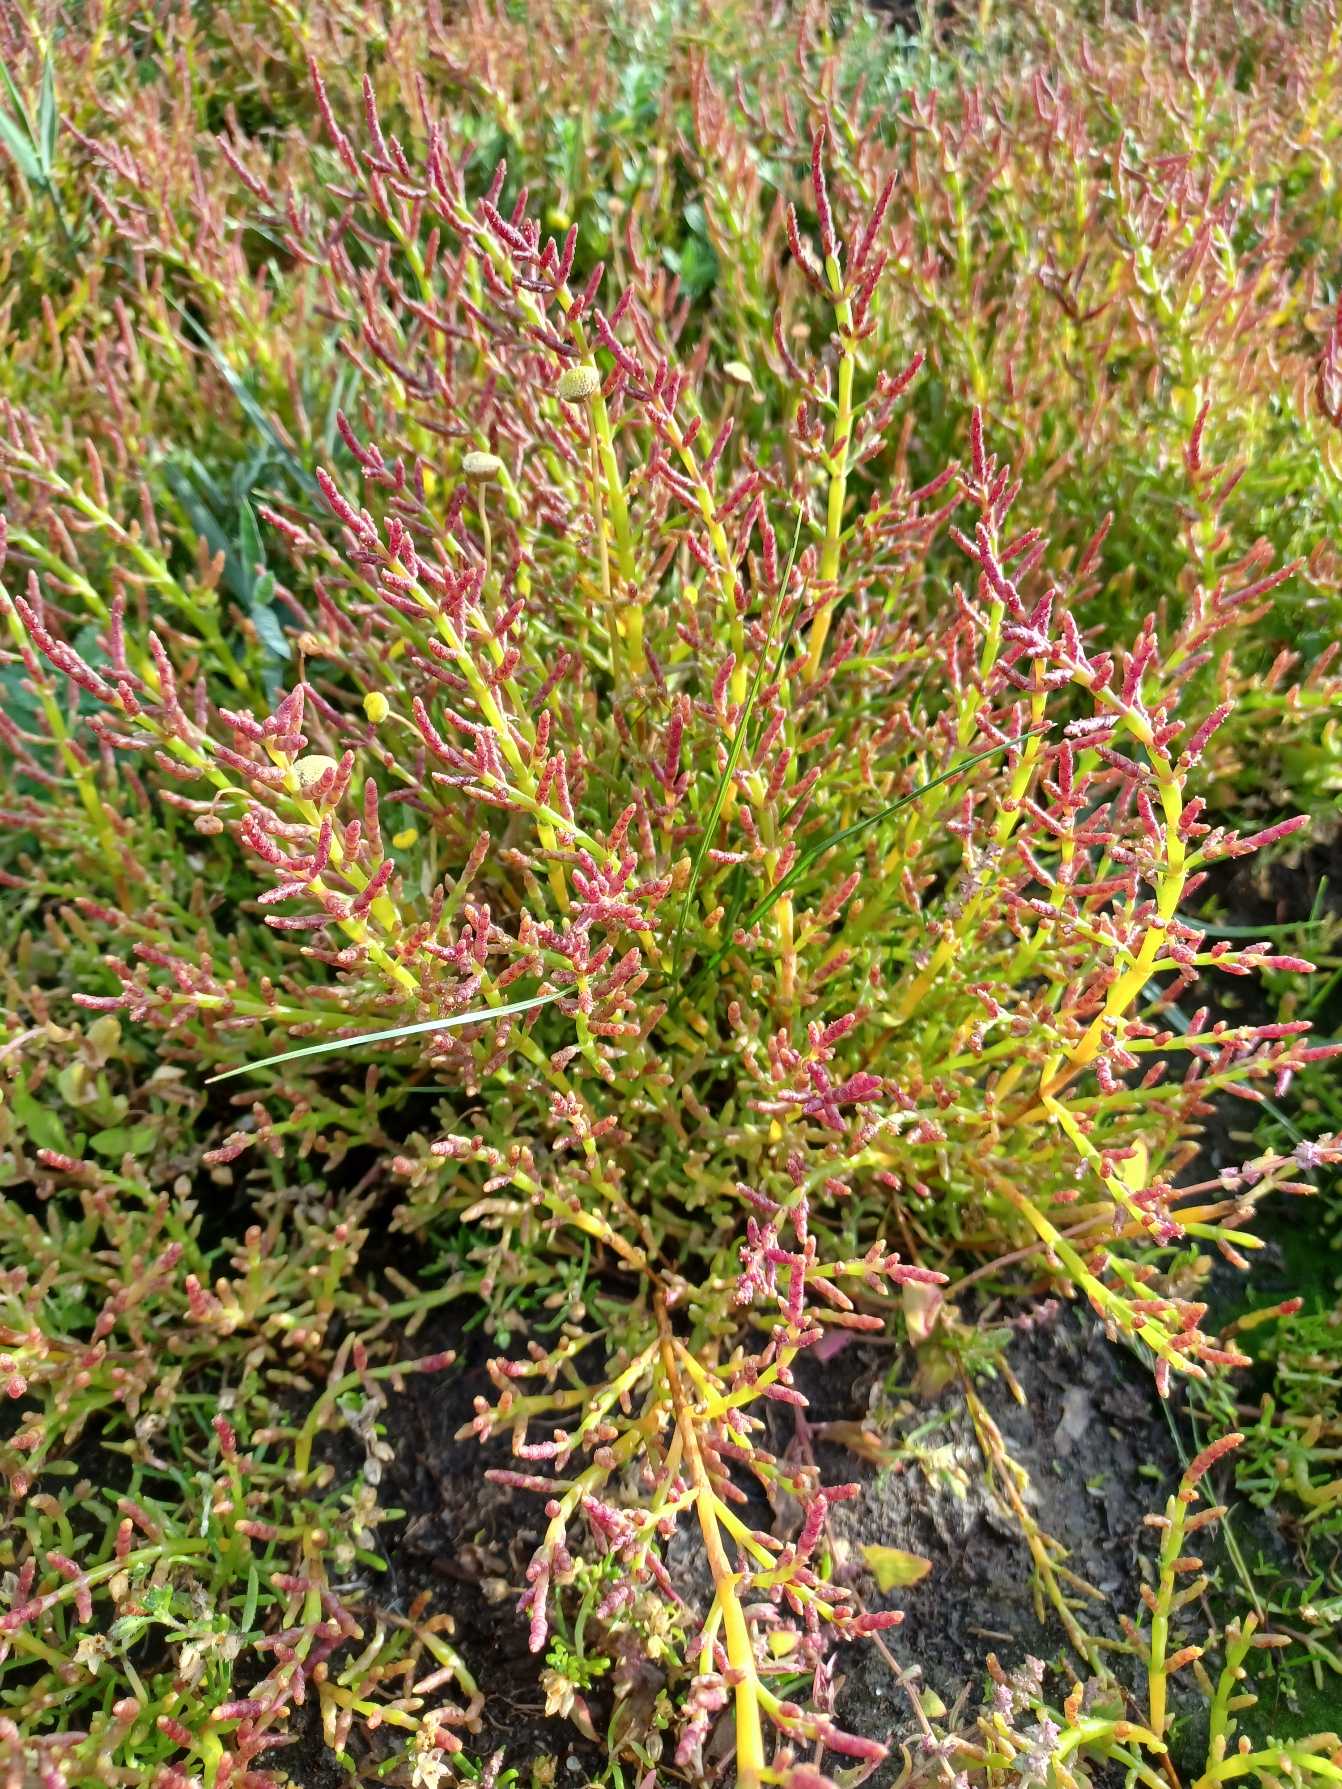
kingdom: Plantae
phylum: Tracheophyta
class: Magnoliopsida
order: Caryophyllales
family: Amaranthaceae
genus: Salicornia
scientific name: Salicornia europaea
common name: Almindelig salturt
